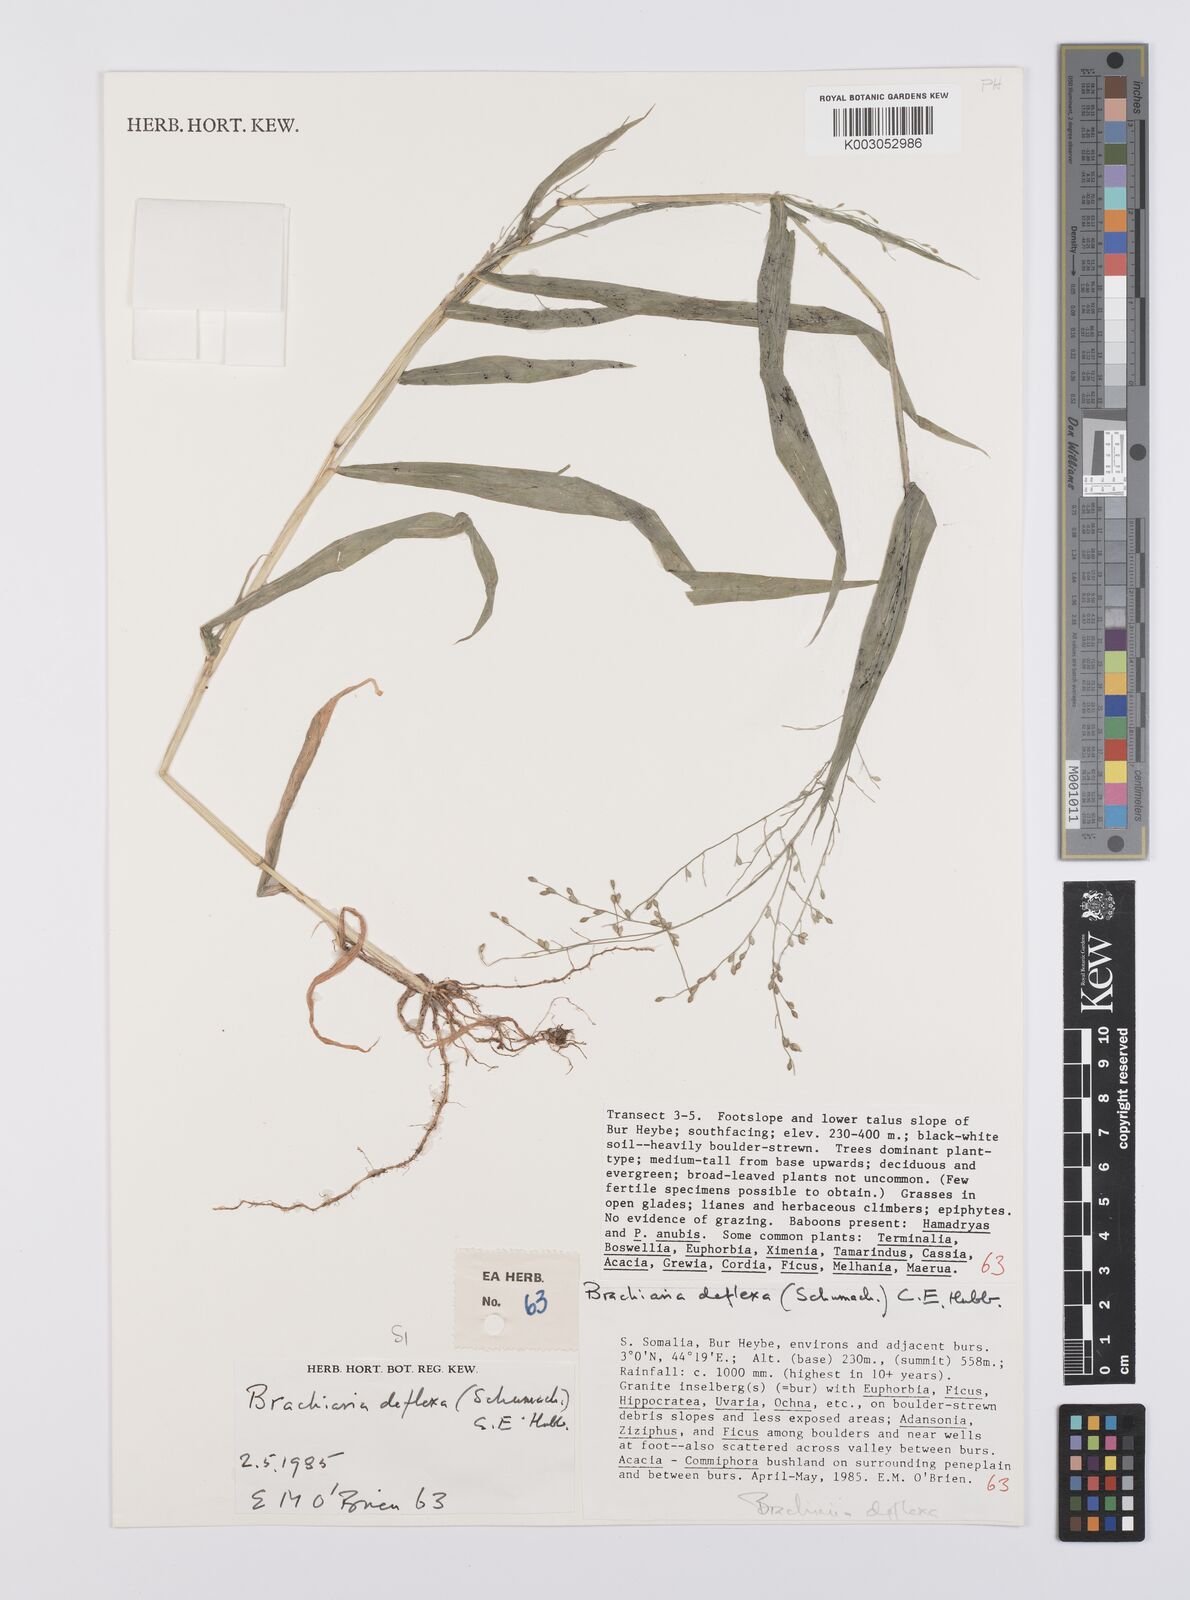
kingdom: Plantae
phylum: Tracheophyta
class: Liliopsida
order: Poales
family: Poaceae
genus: Urochloa
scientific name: Urochloa deflexa
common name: Guinea millet
